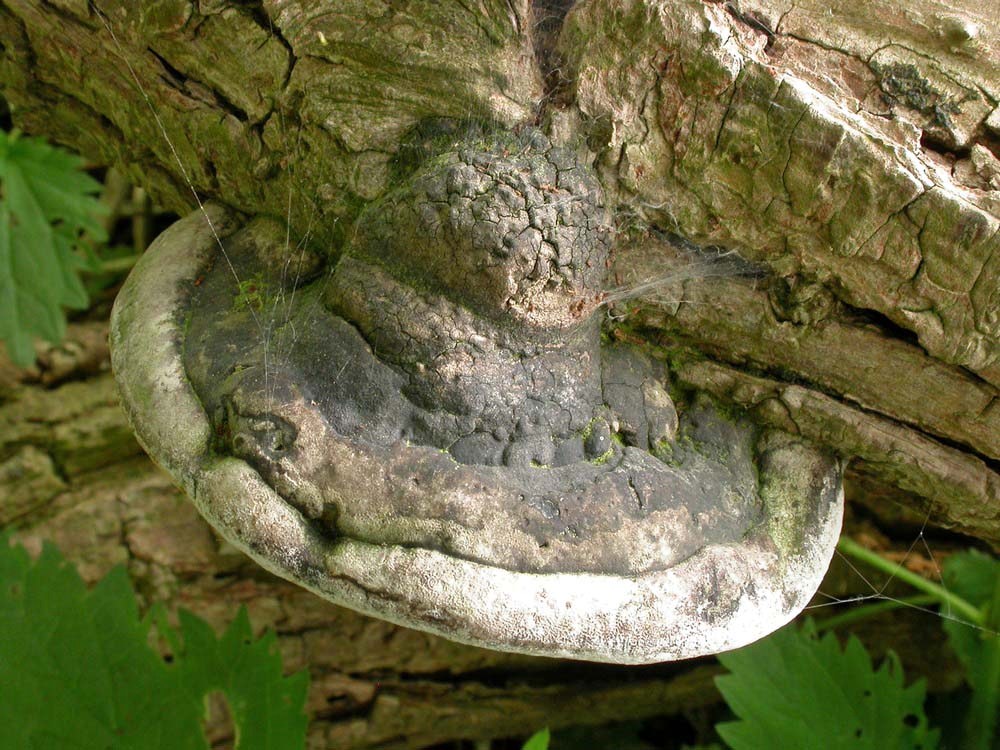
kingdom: Fungi
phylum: Basidiomycota
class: Agaricomycetes
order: Hymenochaetales
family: Hymenochaetaceae
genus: Phellinus
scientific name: Phellinus igniarius
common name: almindelig ildporesvamp
